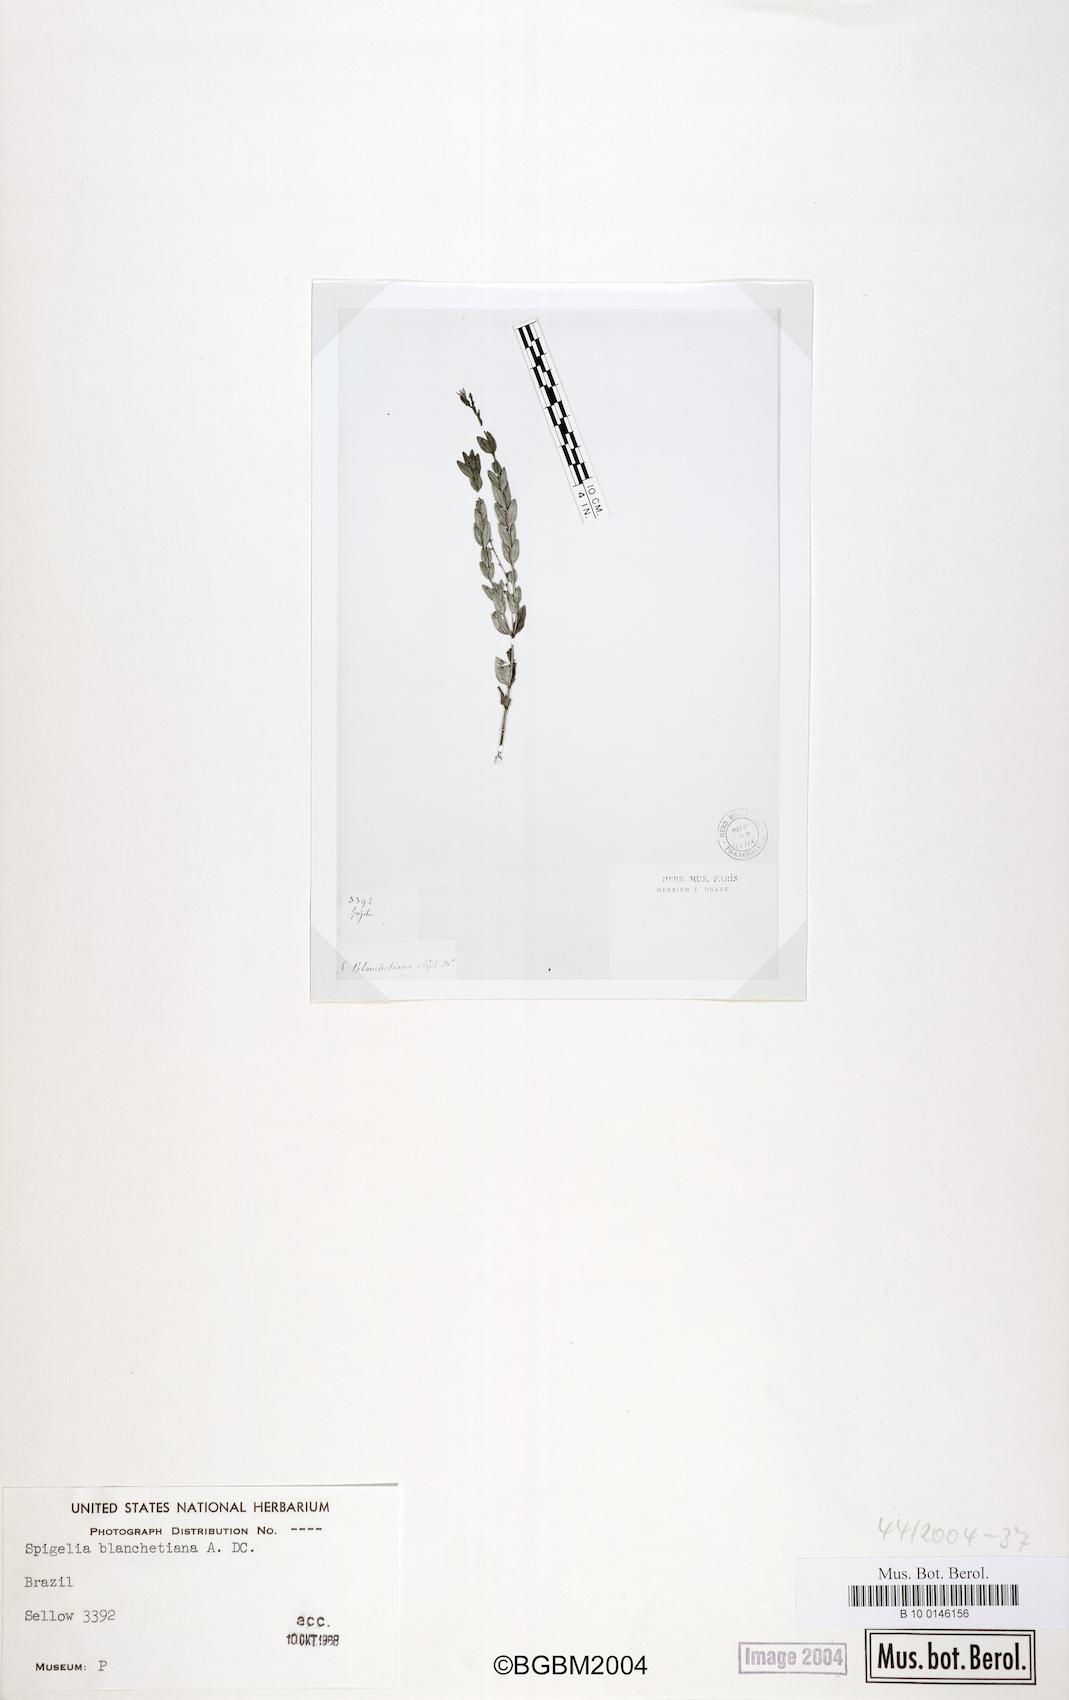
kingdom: Plantae
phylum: Tracheophyta
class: Magnoliopsida
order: Gentianales
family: Loganiaceae
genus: Spigelia
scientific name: Spigelia blanchetiana
